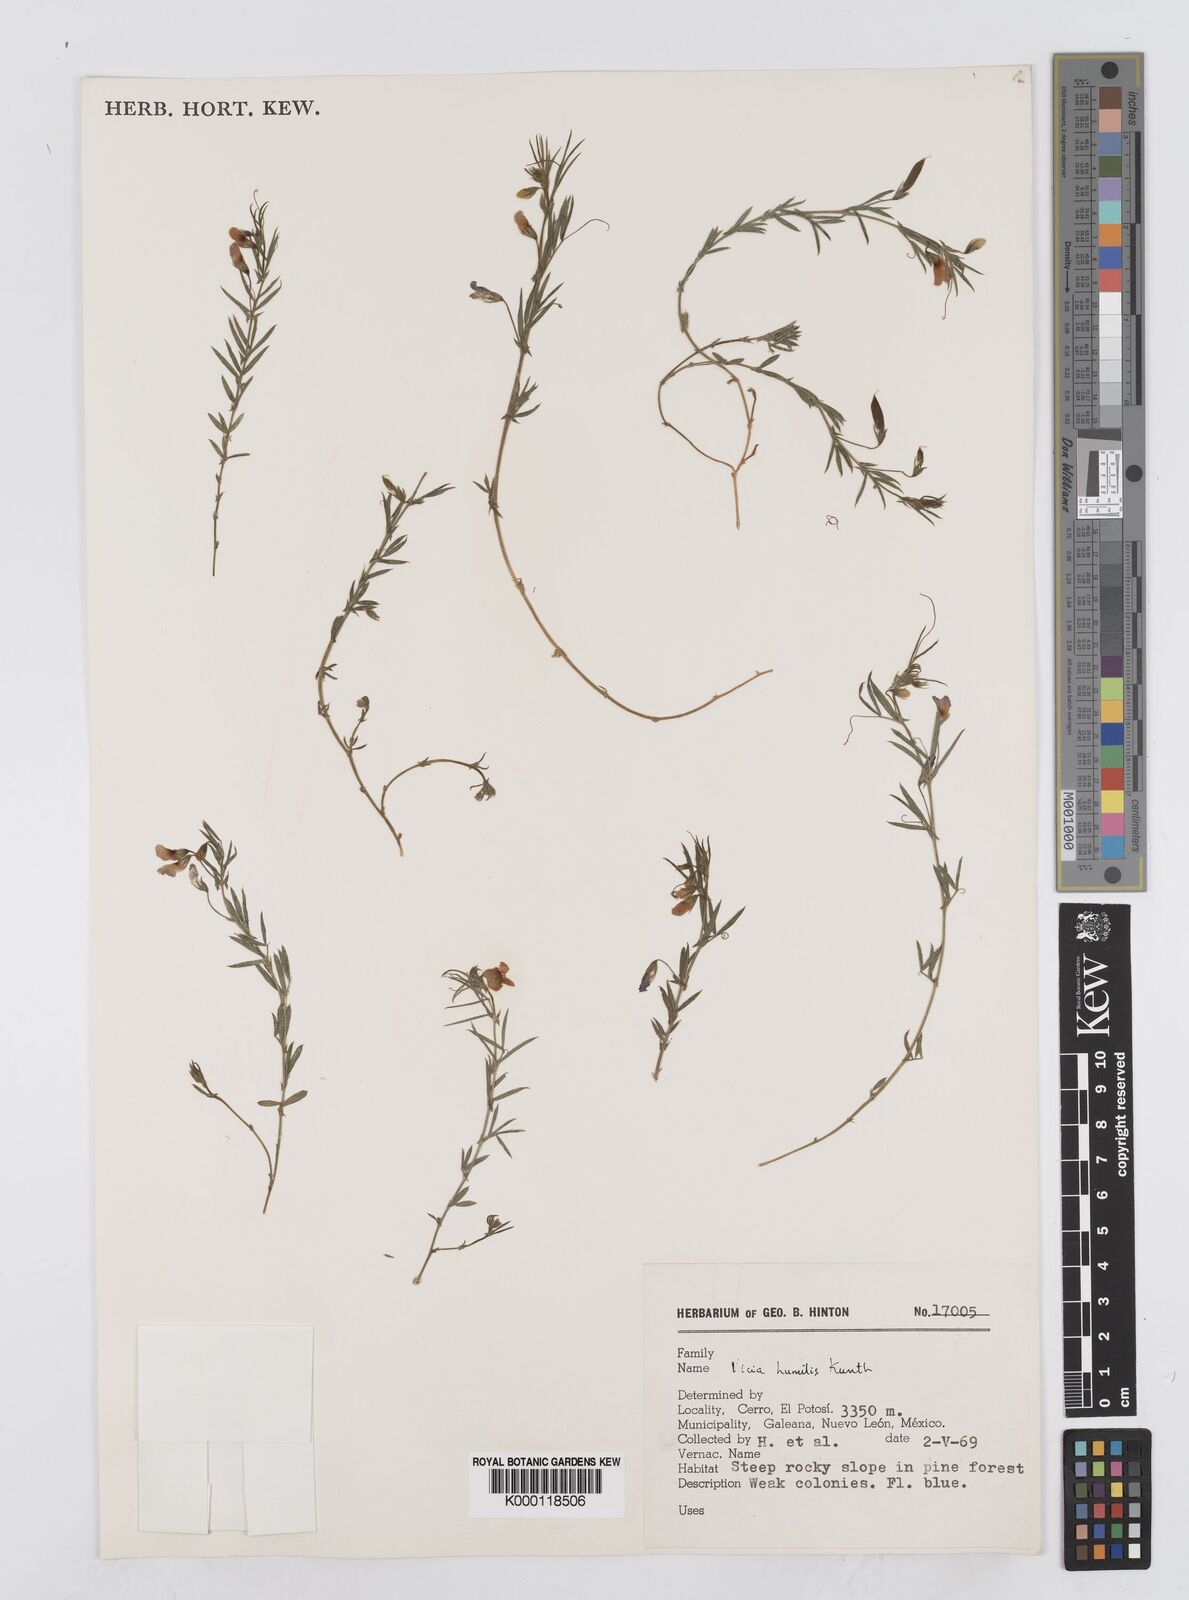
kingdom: Plantae
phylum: Tracheophyta
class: Magnoliopsida
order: Fabales
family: Fabaceae
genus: Vicia
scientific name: Vicia humilis
